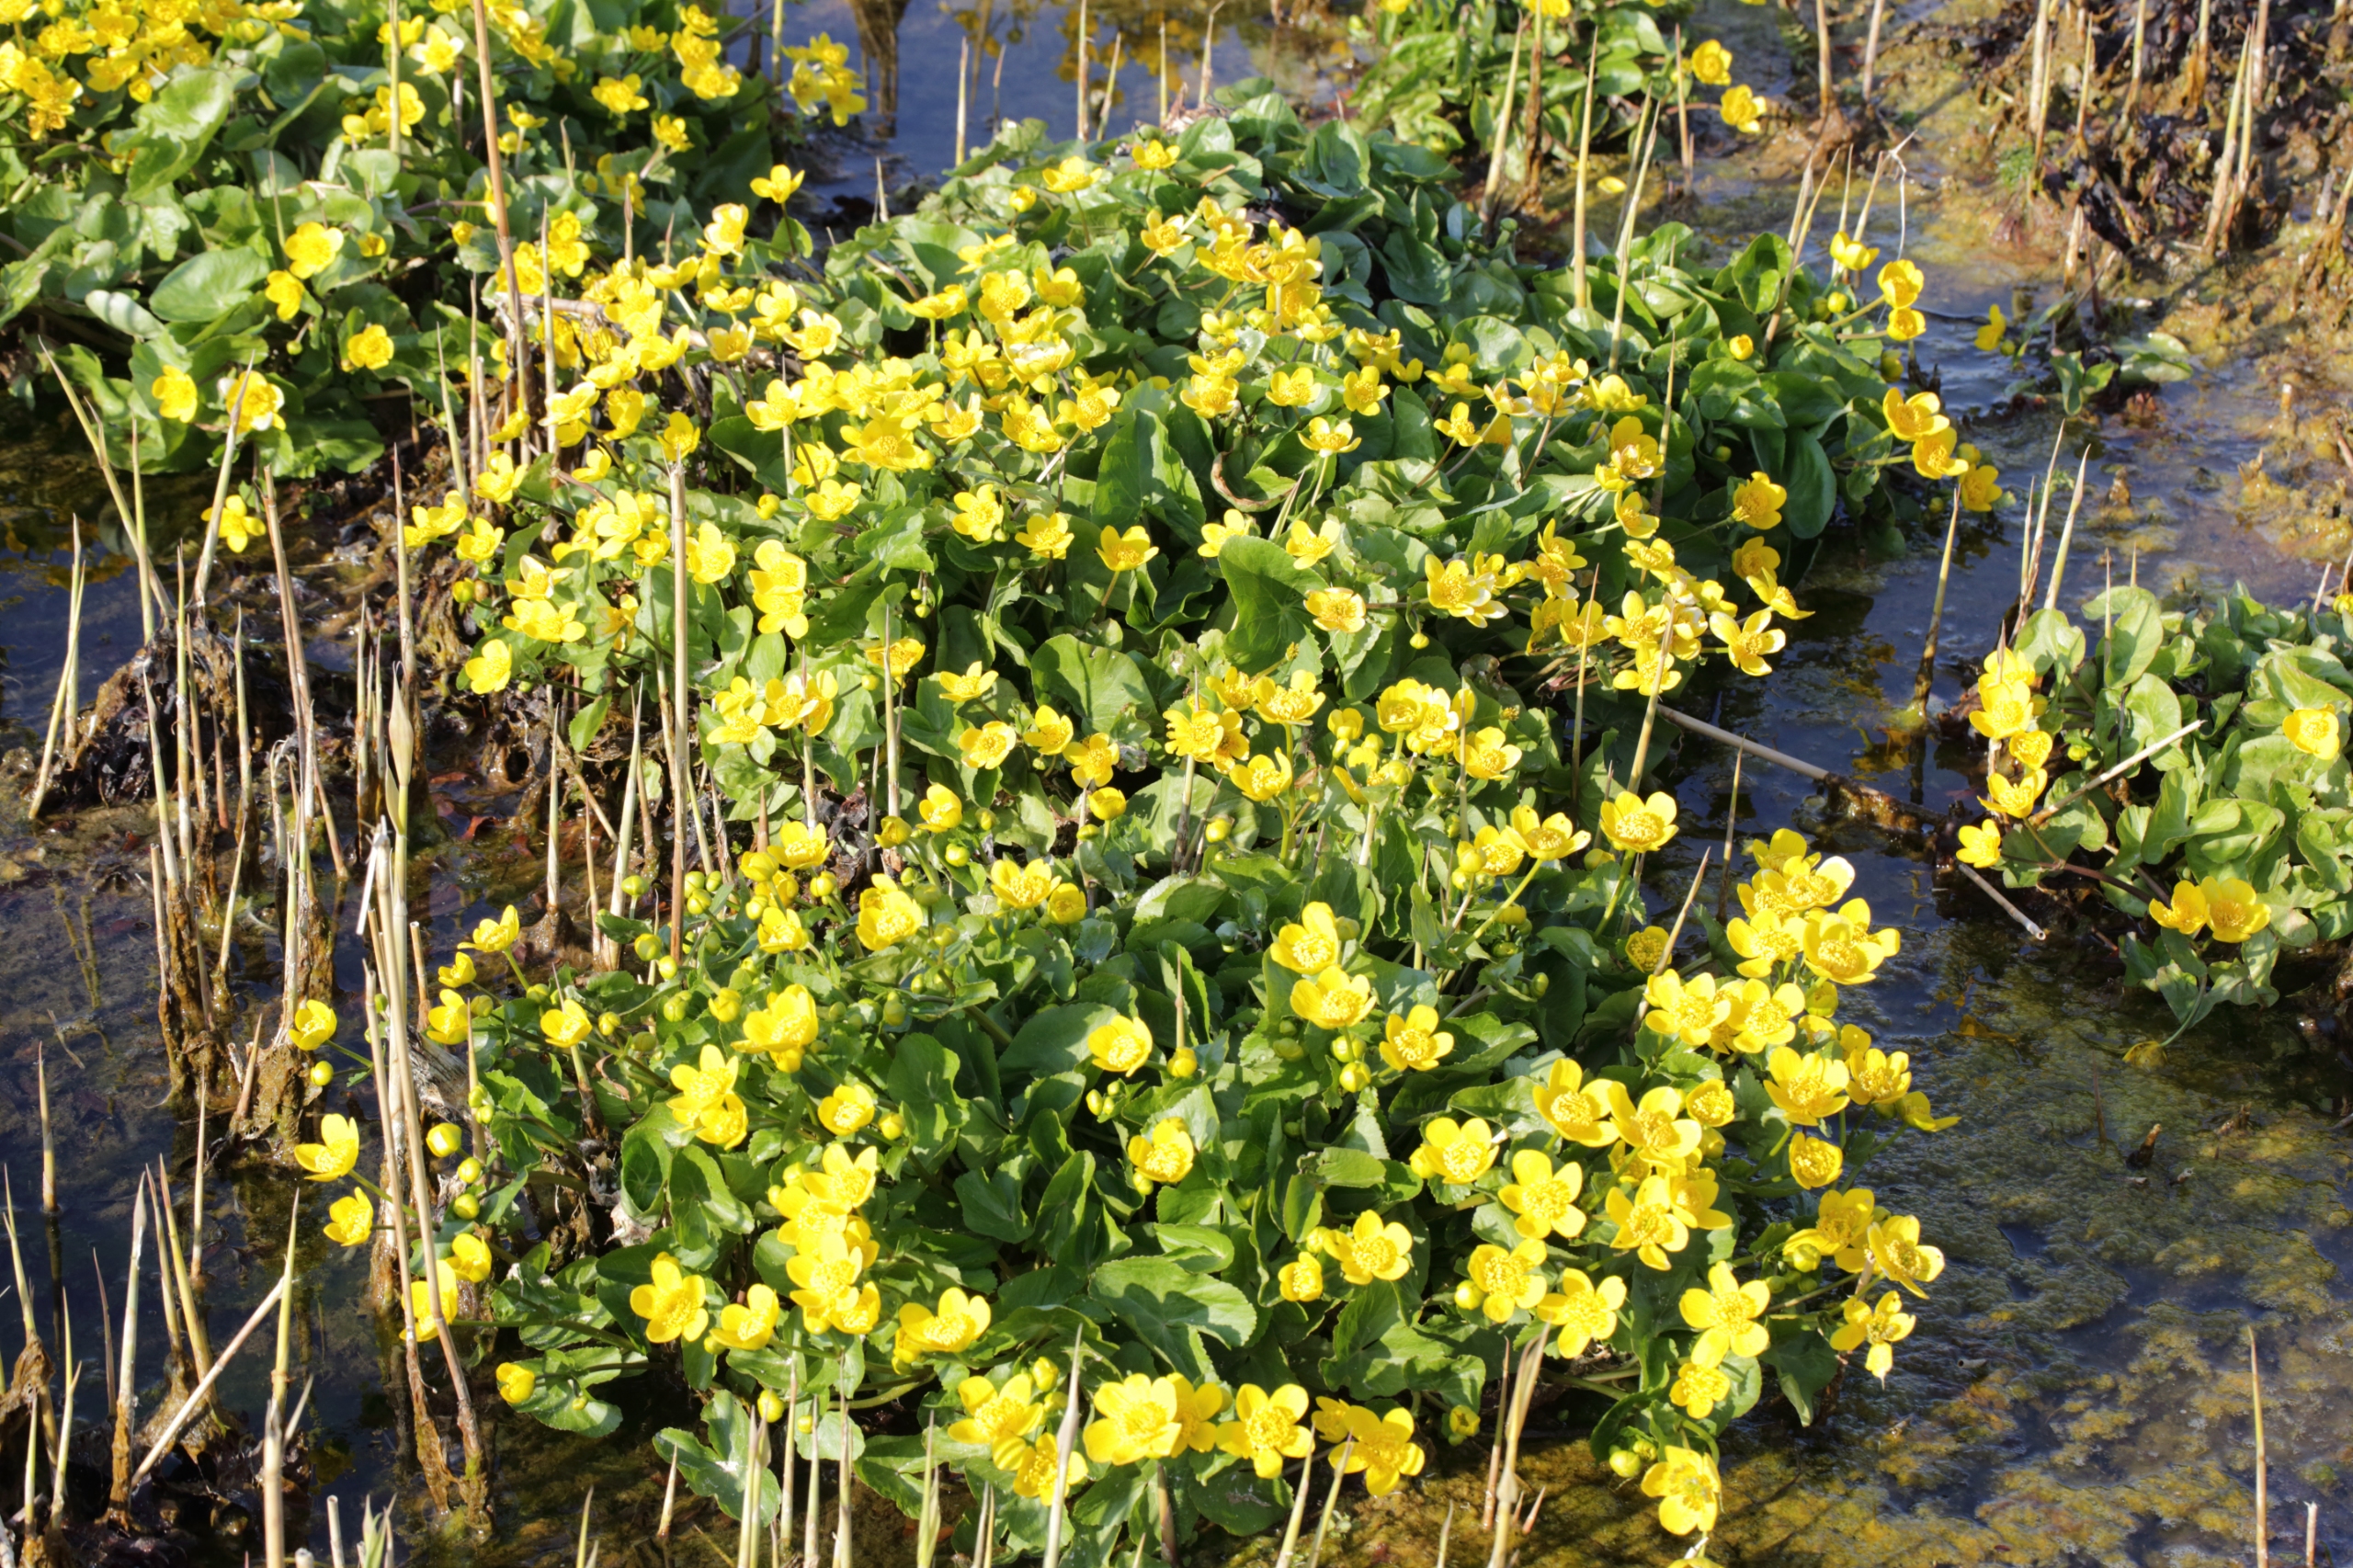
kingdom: Plantae
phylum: Tracheophyta
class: Magnoliopsida
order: Ranunculales
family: Ranunculaceae
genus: Caltha
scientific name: Caltha palustris
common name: Eng-kabbeleje
